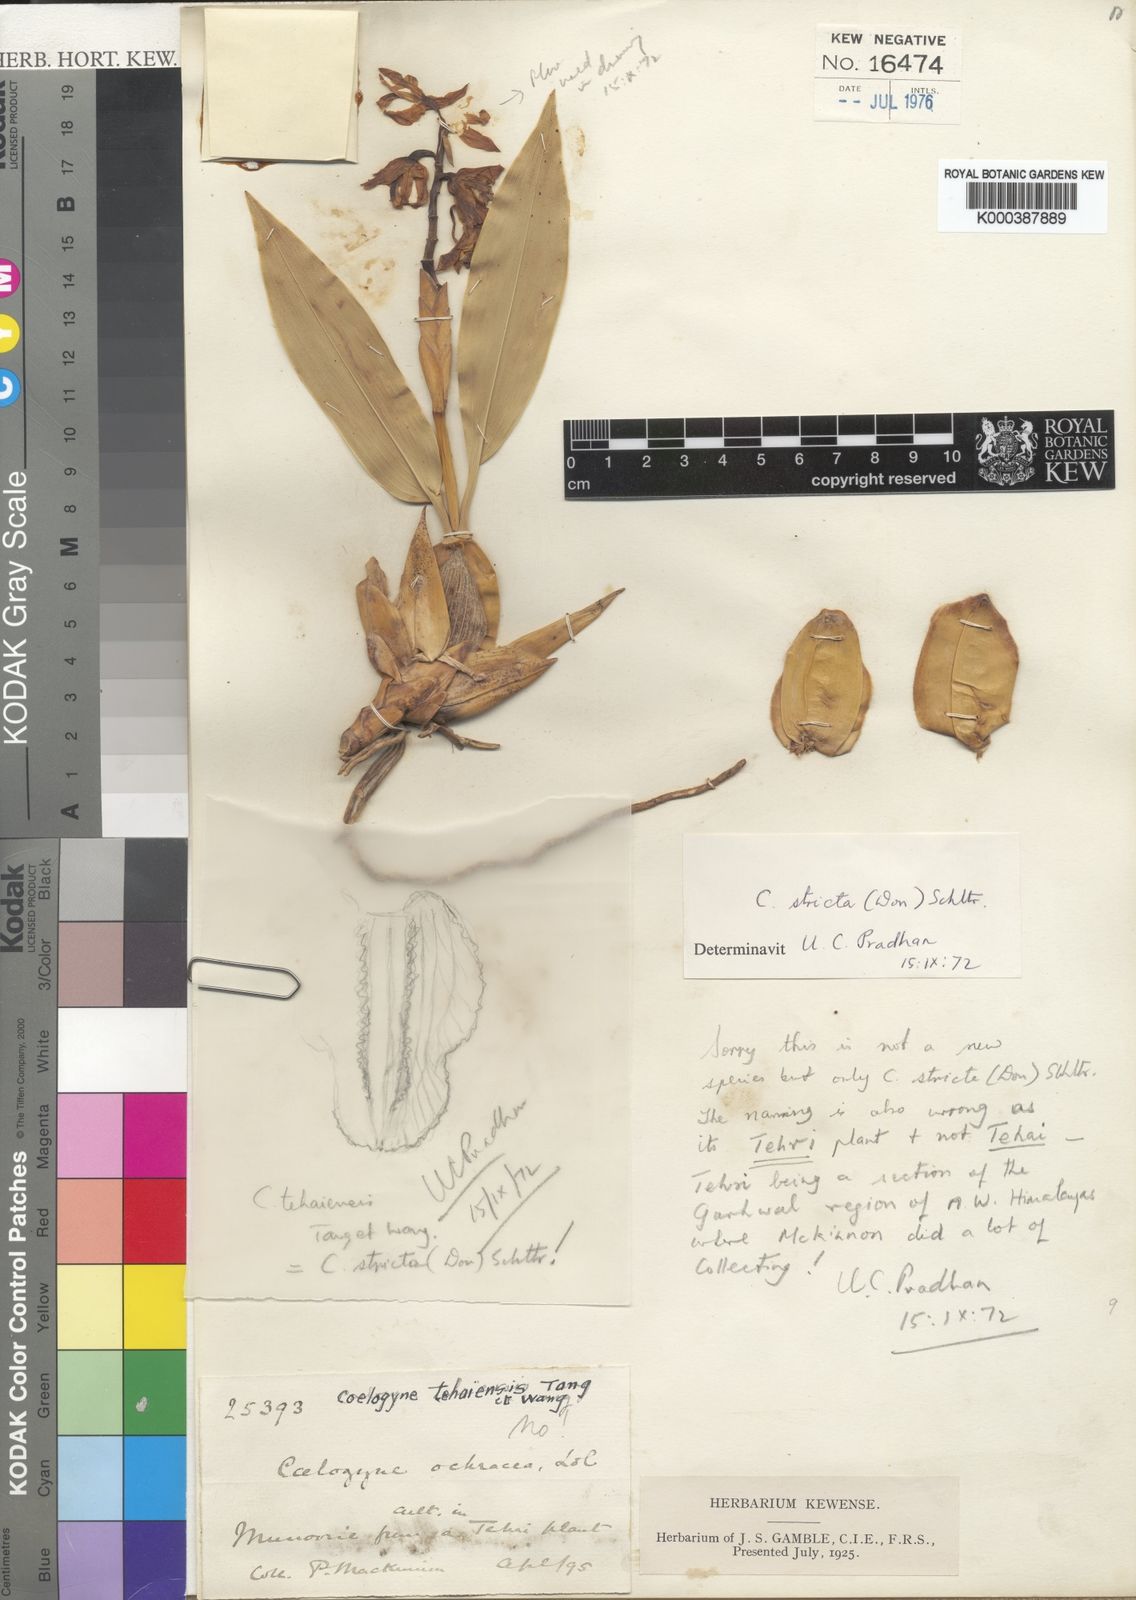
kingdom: Plantae
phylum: Tracheophyta
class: Liliopsida
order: Asparagales
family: Orchidaceae
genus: Coelogyne
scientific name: Coelogyne stricta
